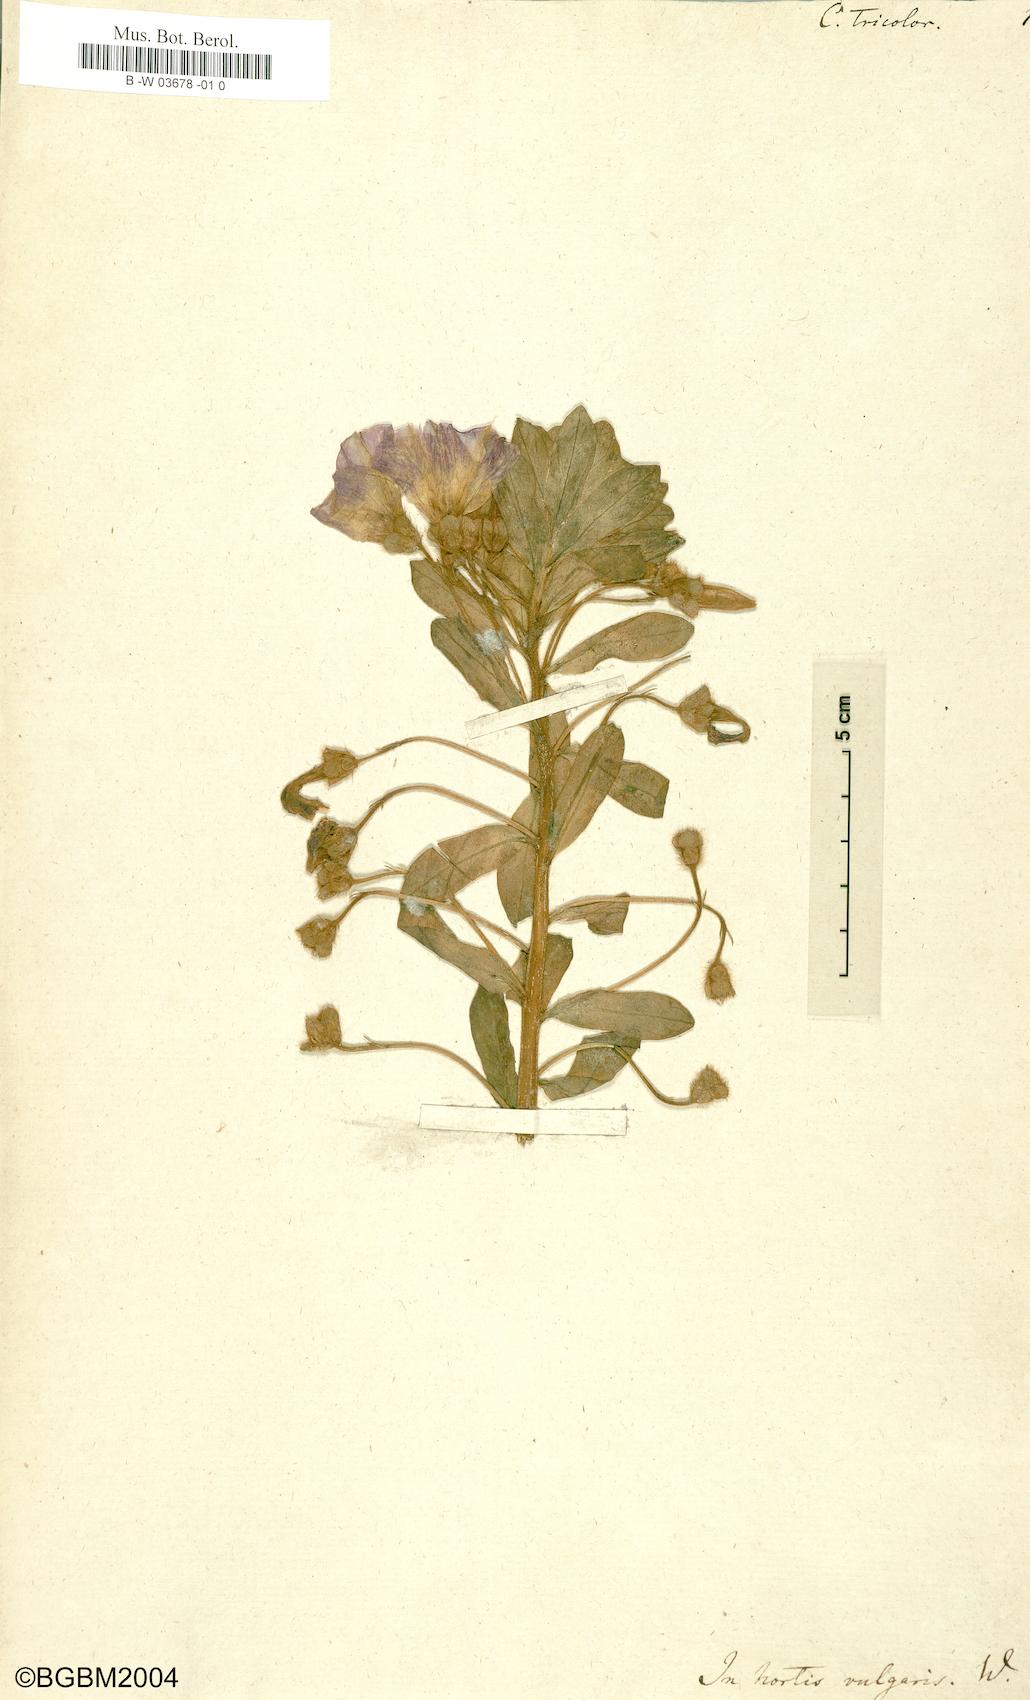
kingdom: Plantae
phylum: Tracheophyta
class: Magnoliopsida
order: Solanales
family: Convolvulaceae
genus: Convolvulus
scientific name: Convolvulus tricolor
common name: Dwarf morning-glory
